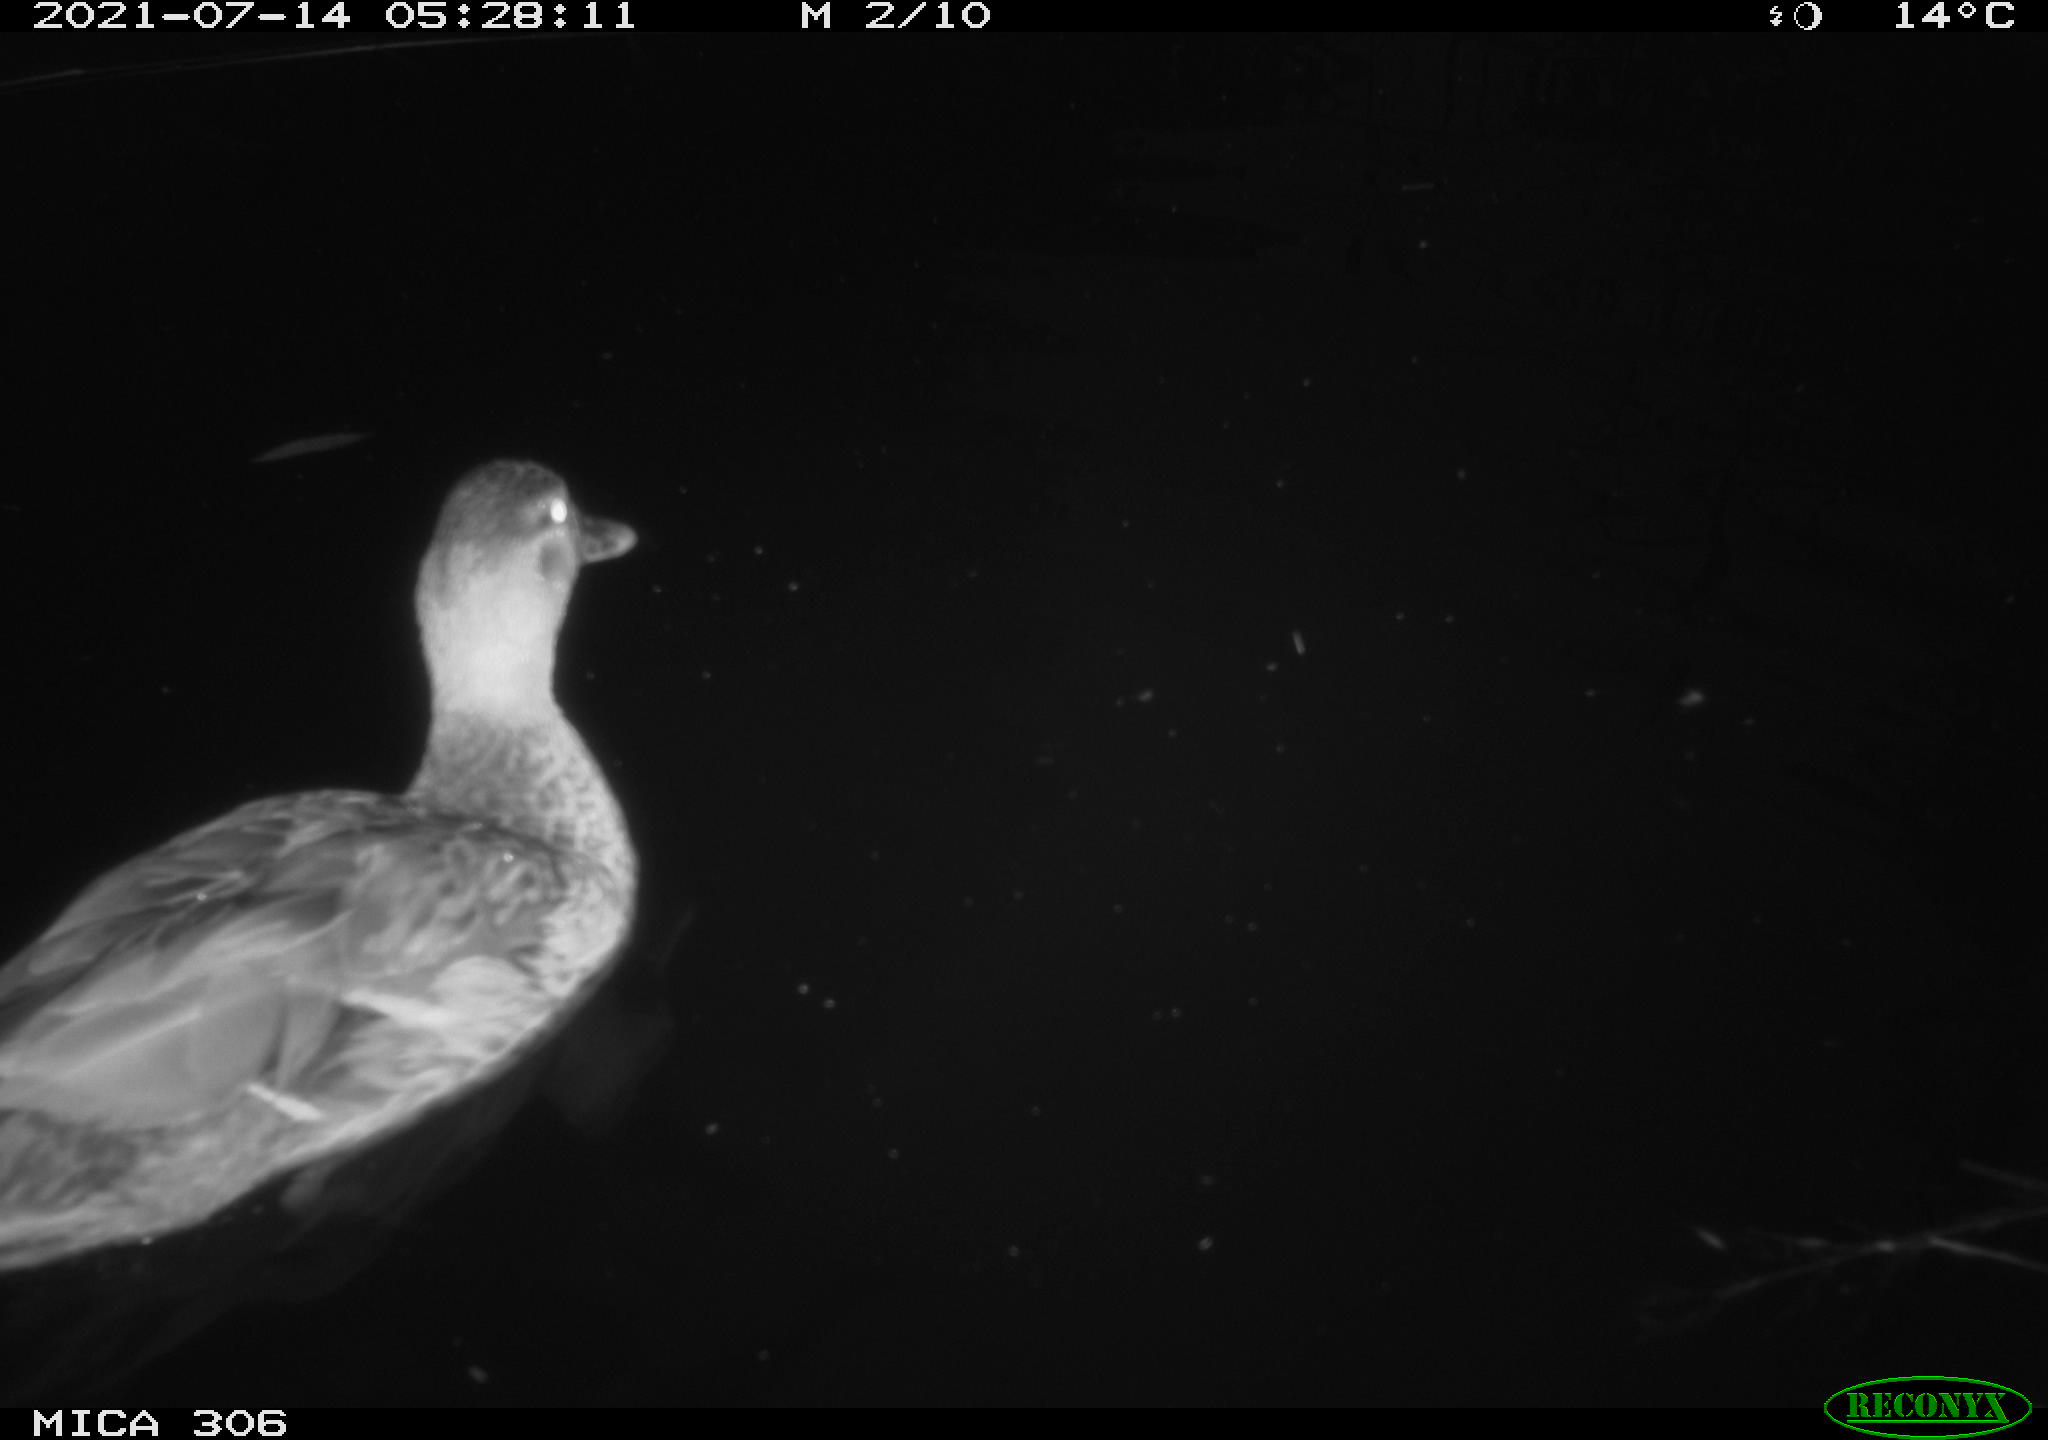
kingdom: Animalia
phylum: Chordata
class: Aves
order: Anseriformes
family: Anatidae
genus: Anas
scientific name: Anas
